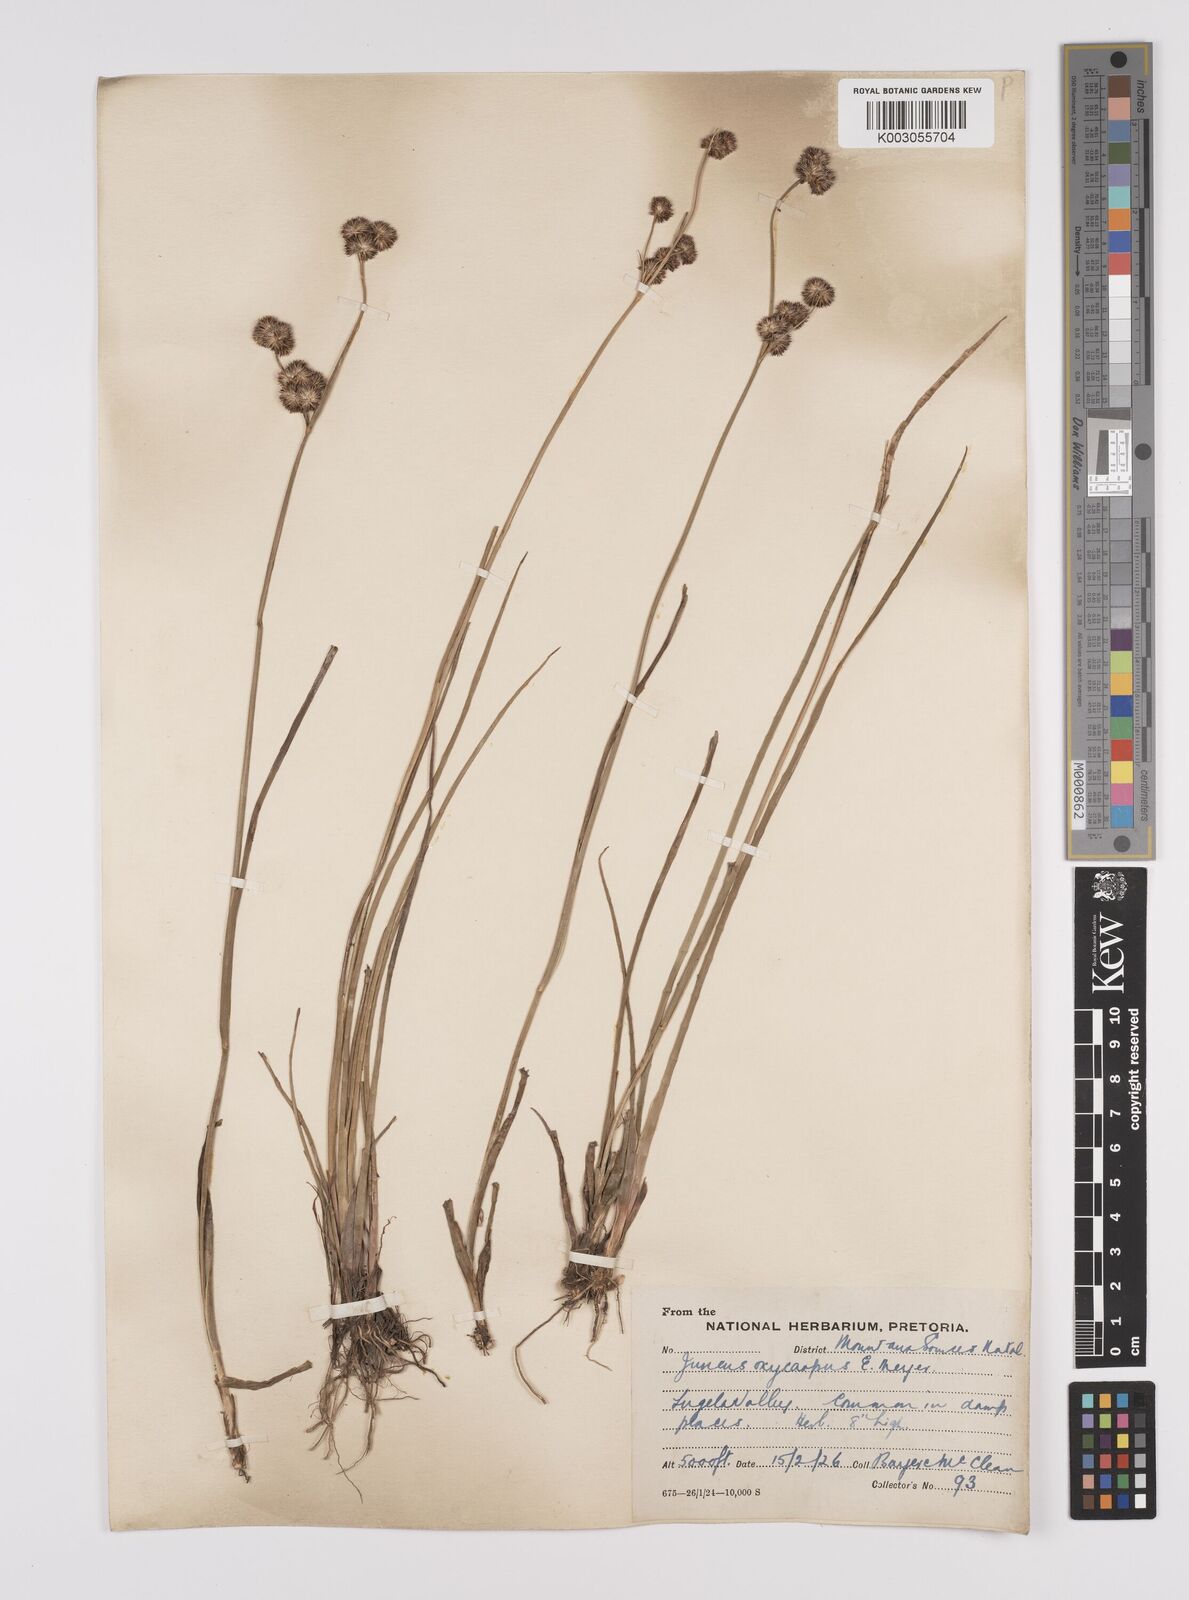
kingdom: Plantae
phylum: Tracheophyta
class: Liliopsida
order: Poales
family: Juncaceae
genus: Juncus
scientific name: Juncus oxycarpus
